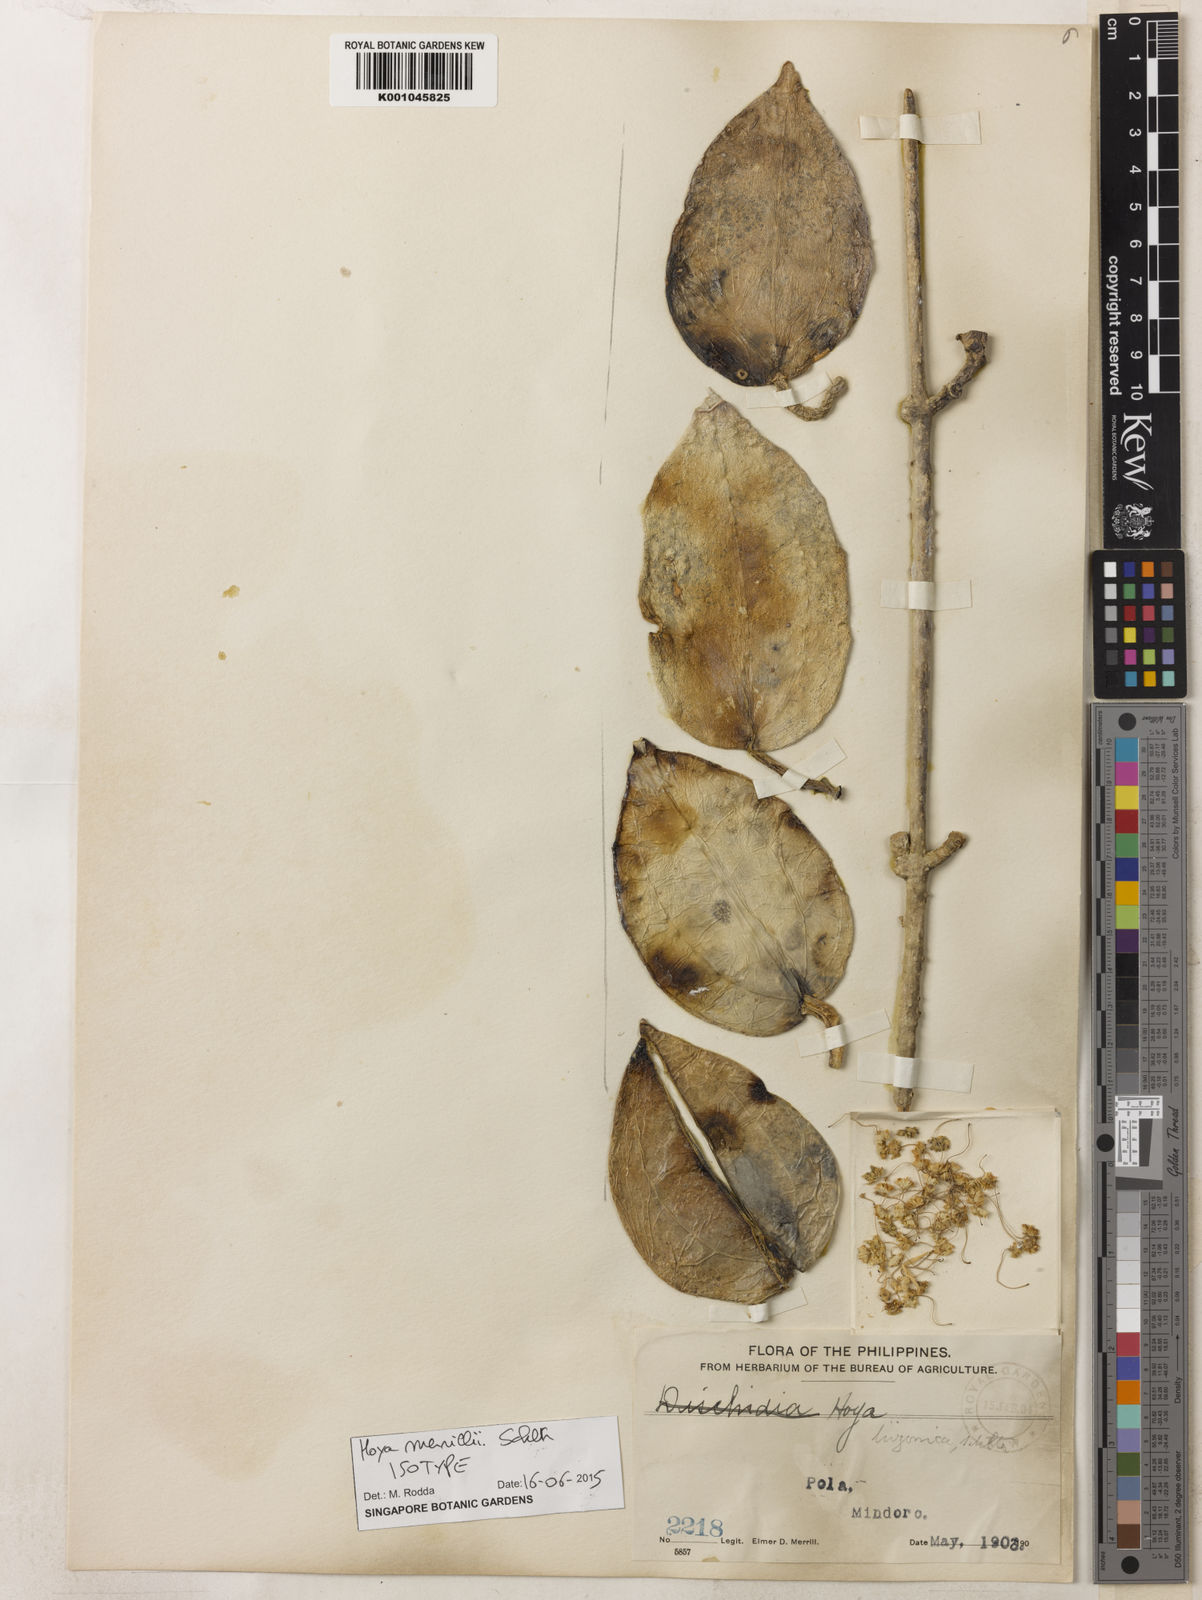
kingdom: Plantae
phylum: Tracheophyta
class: Magnoliopsida
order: Gentianales
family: Apocynaceae
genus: Hoya
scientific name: Hoya merrillii
